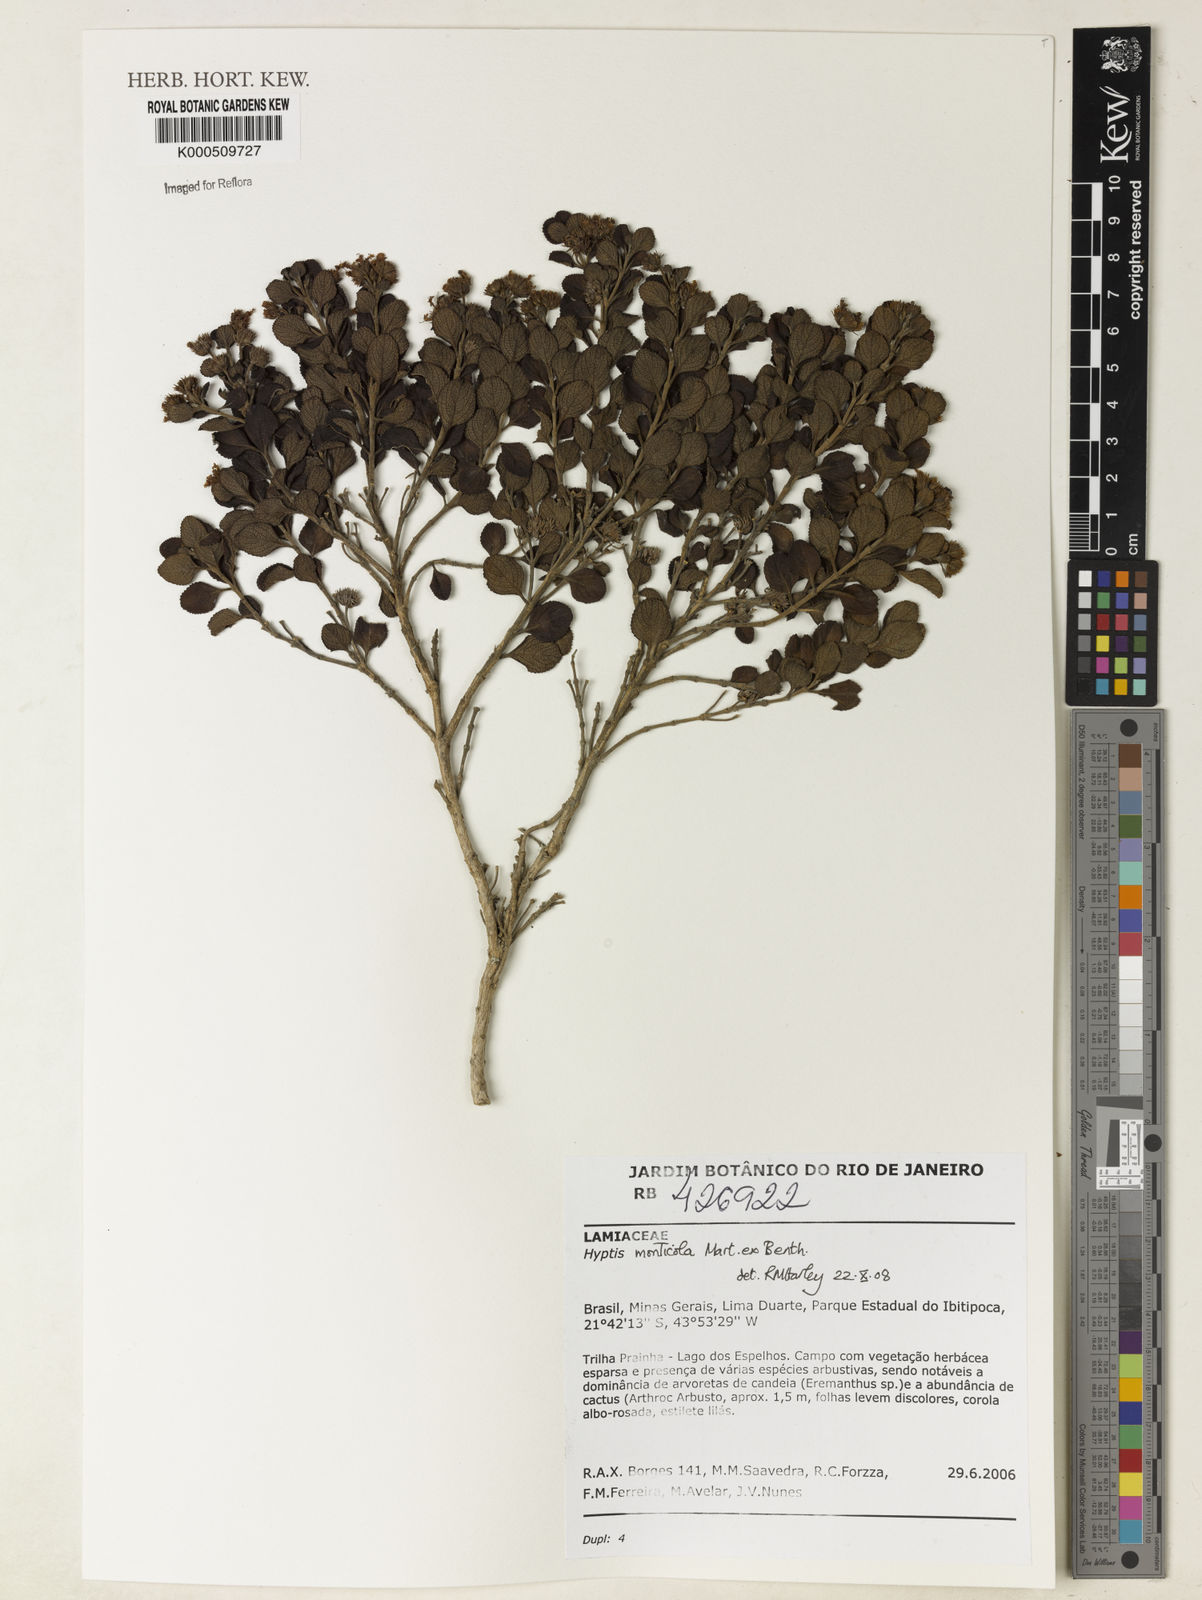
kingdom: Plantae
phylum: Tracheophyta
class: Magnoliopsida
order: Lamiales
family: Lamiaceae
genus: Hyptis
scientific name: Hyptis monticola
